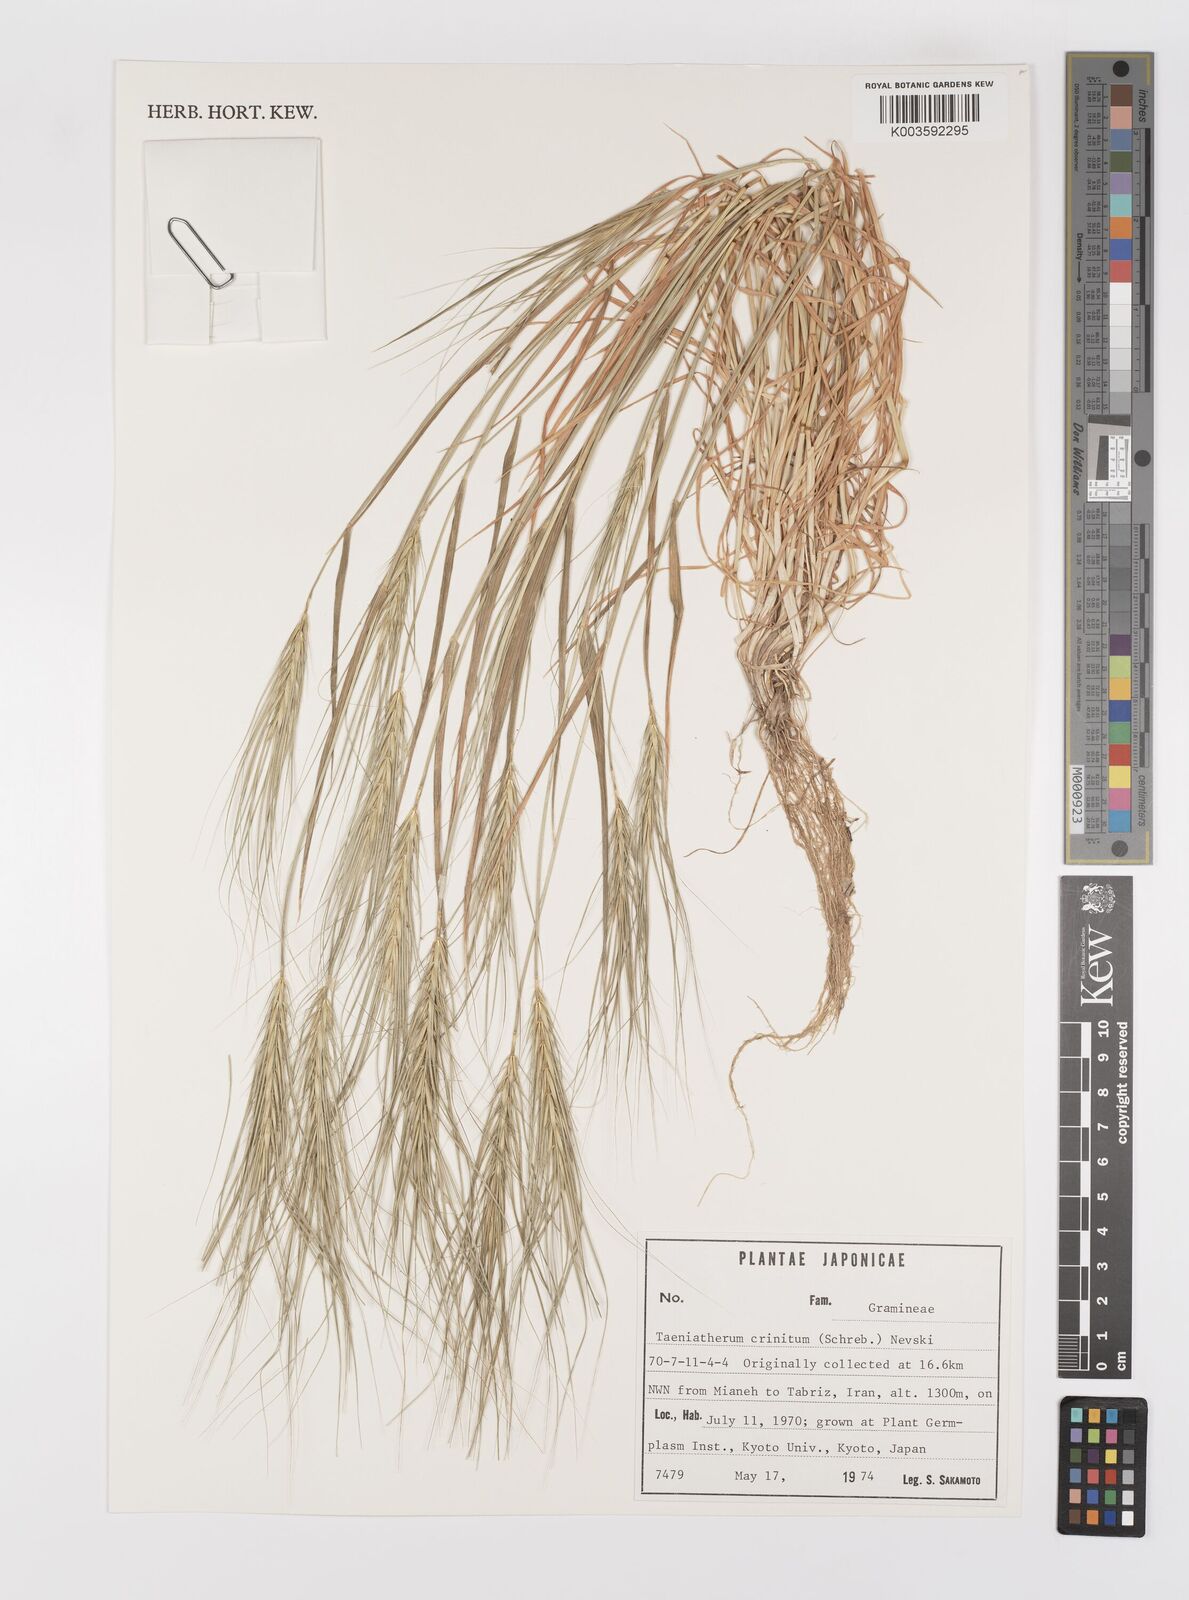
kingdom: Plantae
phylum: Tracheophyta
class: Liliopsida
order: Poales
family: Poaceae
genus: Taeniatherum
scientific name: Taeniatherum caput-medusae
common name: Medusahead
